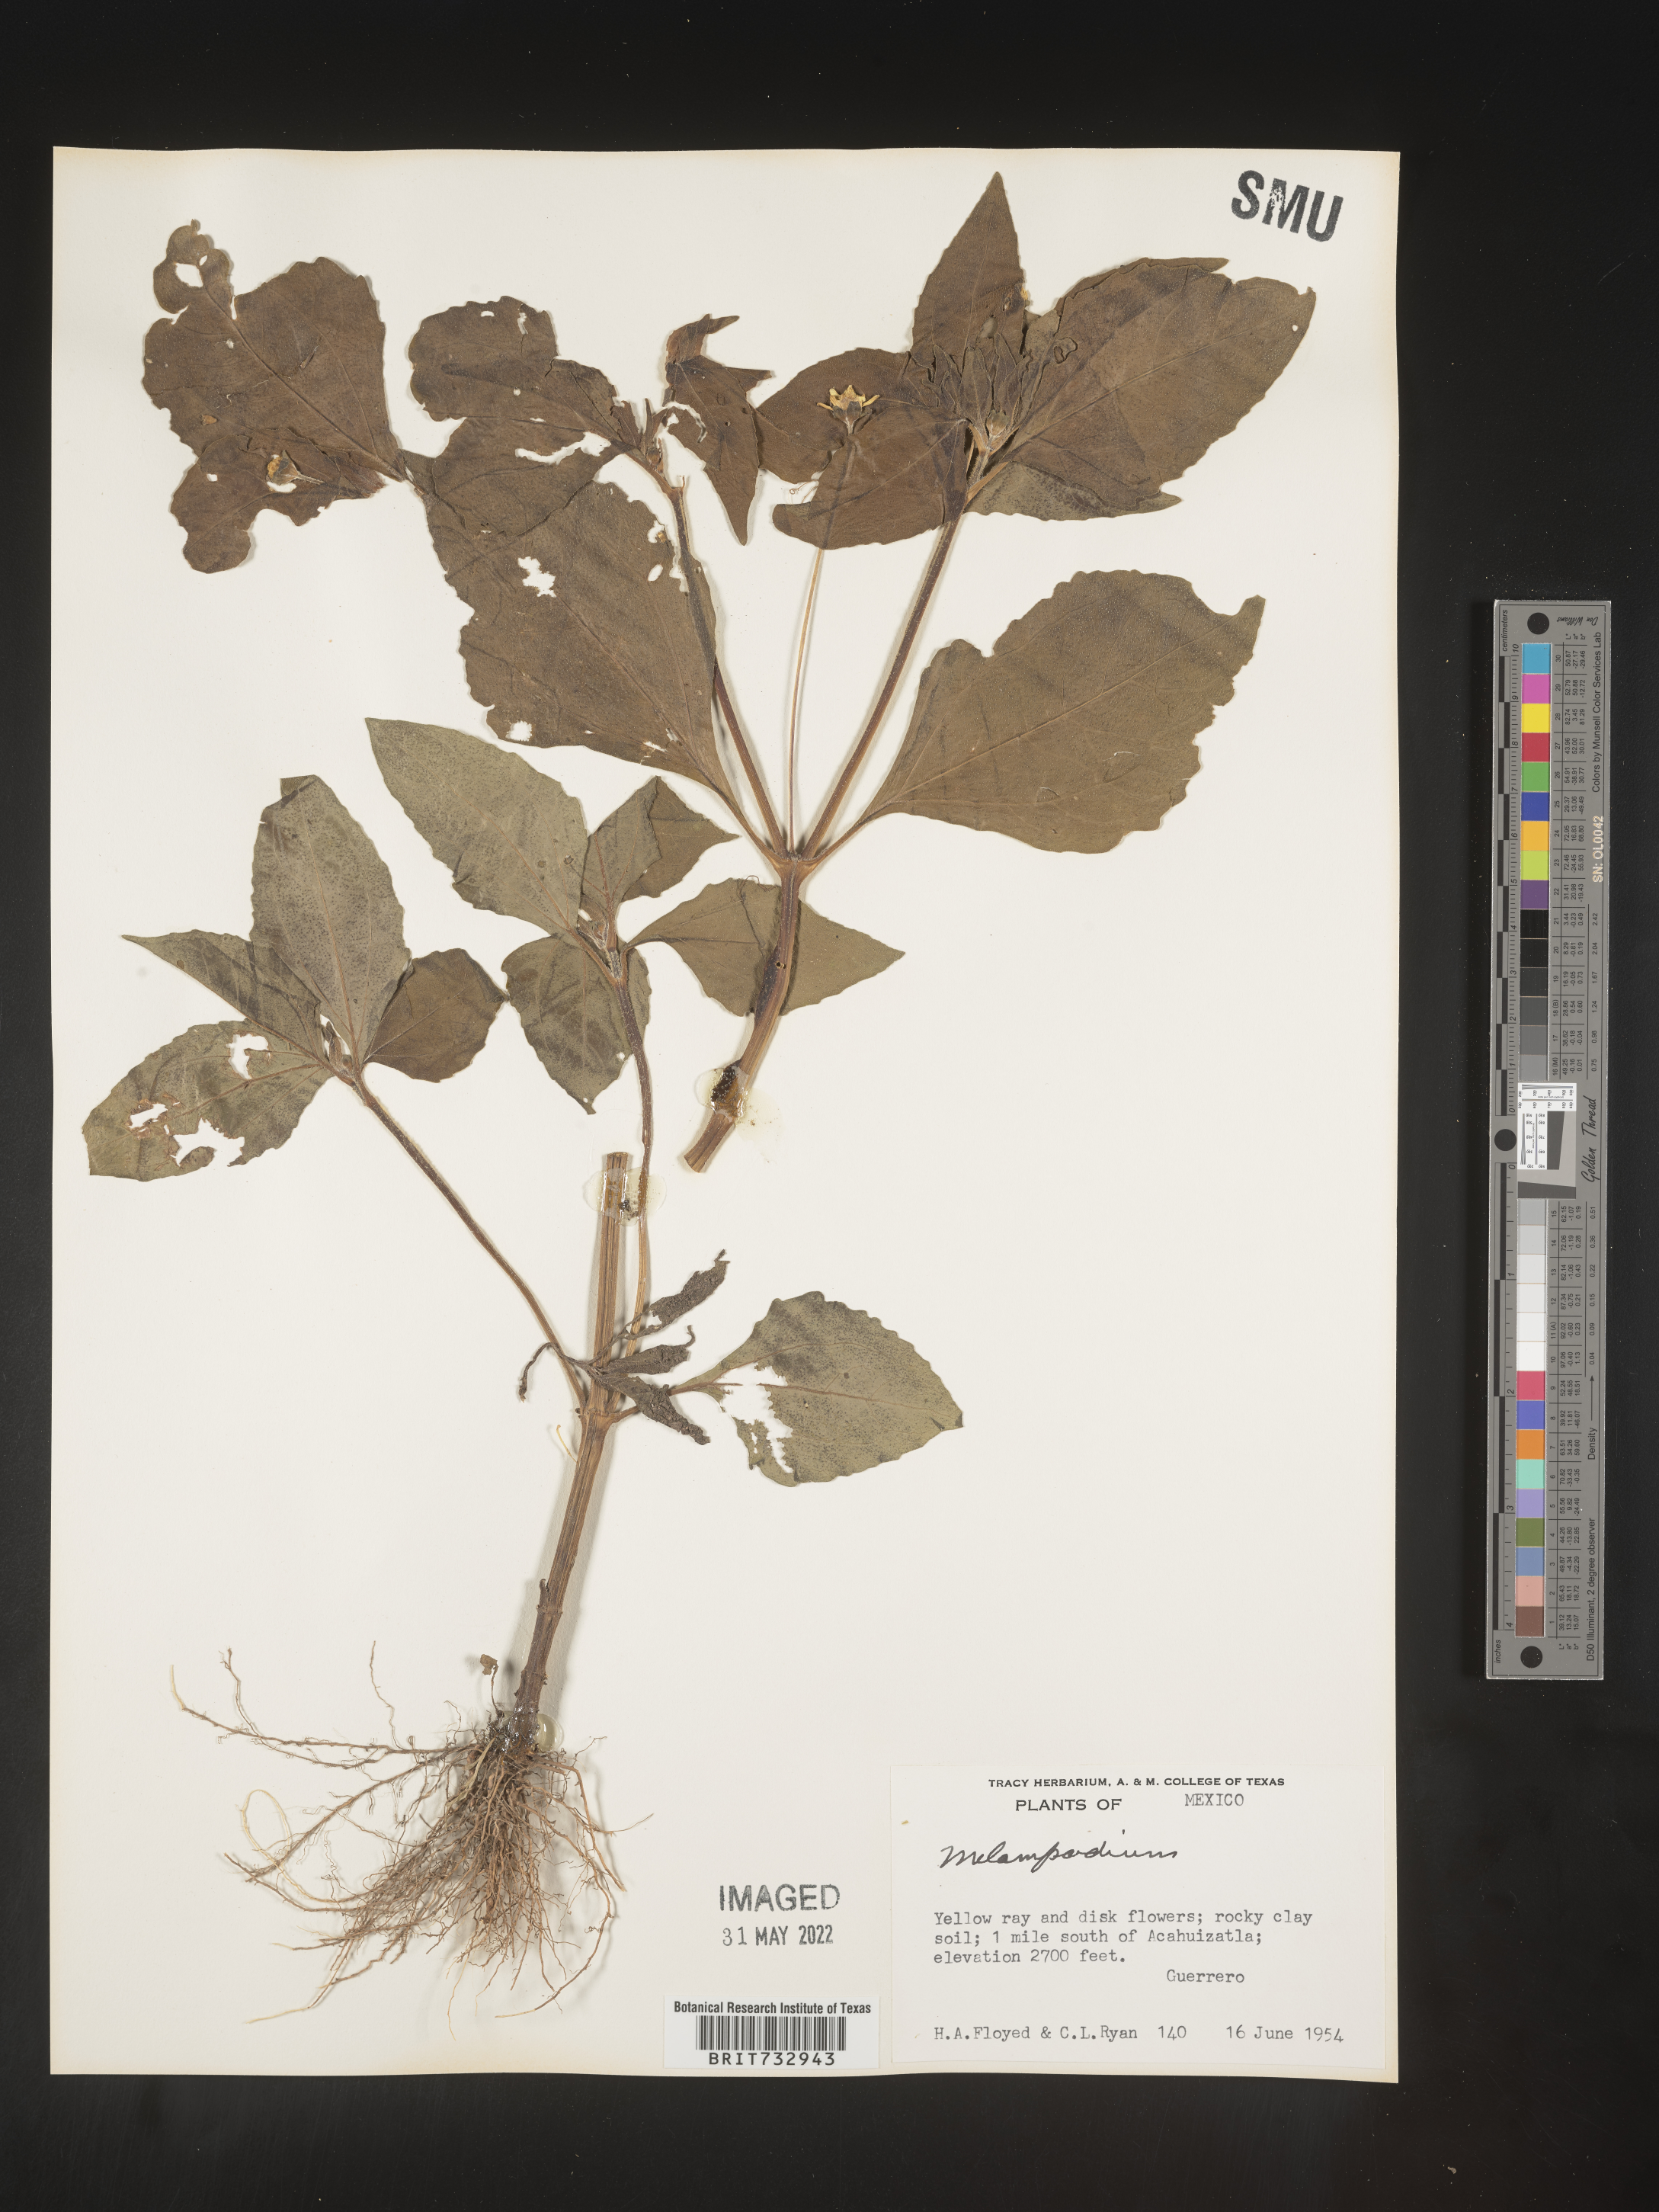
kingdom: Plantae
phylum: Tracheophyta
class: Magnoliopsida
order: Asterales
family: Asteraceae
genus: Melampodium
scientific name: Melampodium
